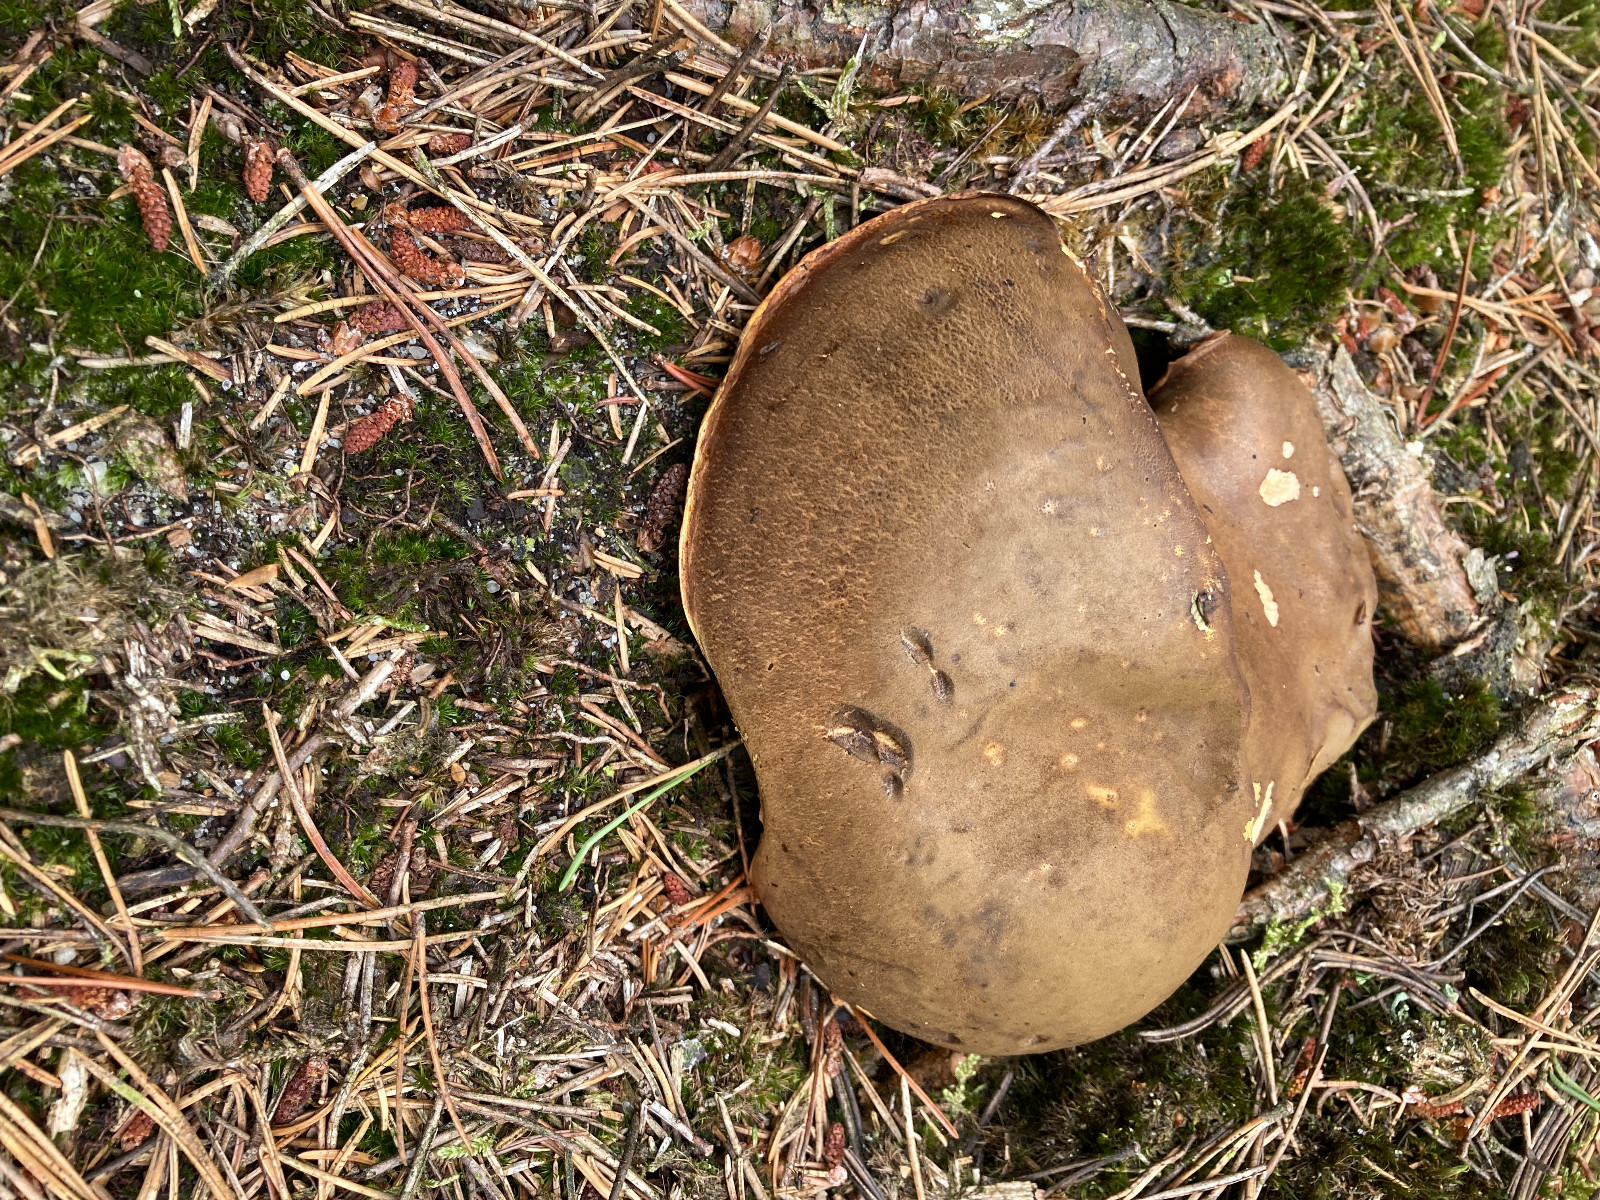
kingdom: Fungi
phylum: Basidiomycota
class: Agaricomycetes
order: Boletales
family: Boletaceae
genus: Neoboletus
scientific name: Neoboletus erythropus
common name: punktstokket indigorørhat
